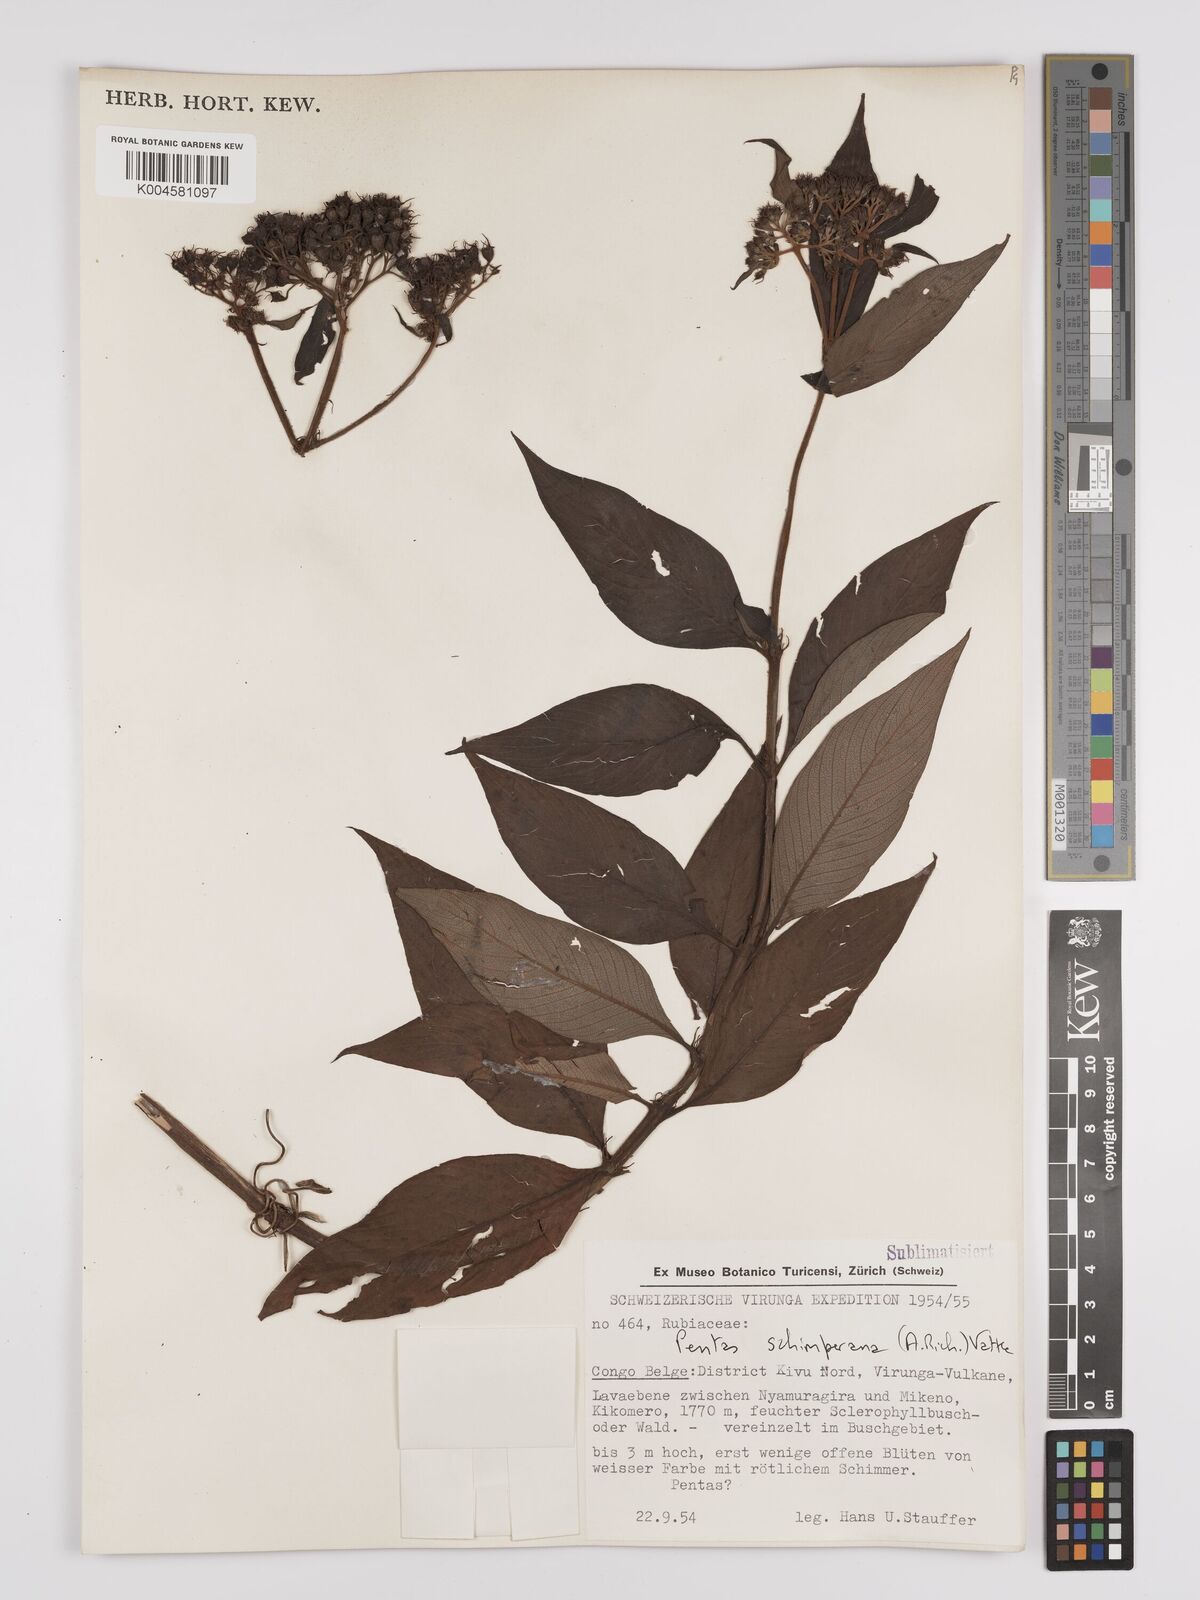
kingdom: Plantae
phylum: Tracheophyta
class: Magnoliopsida
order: Gentianales
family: Rubiaceae
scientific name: Rubiaceae
